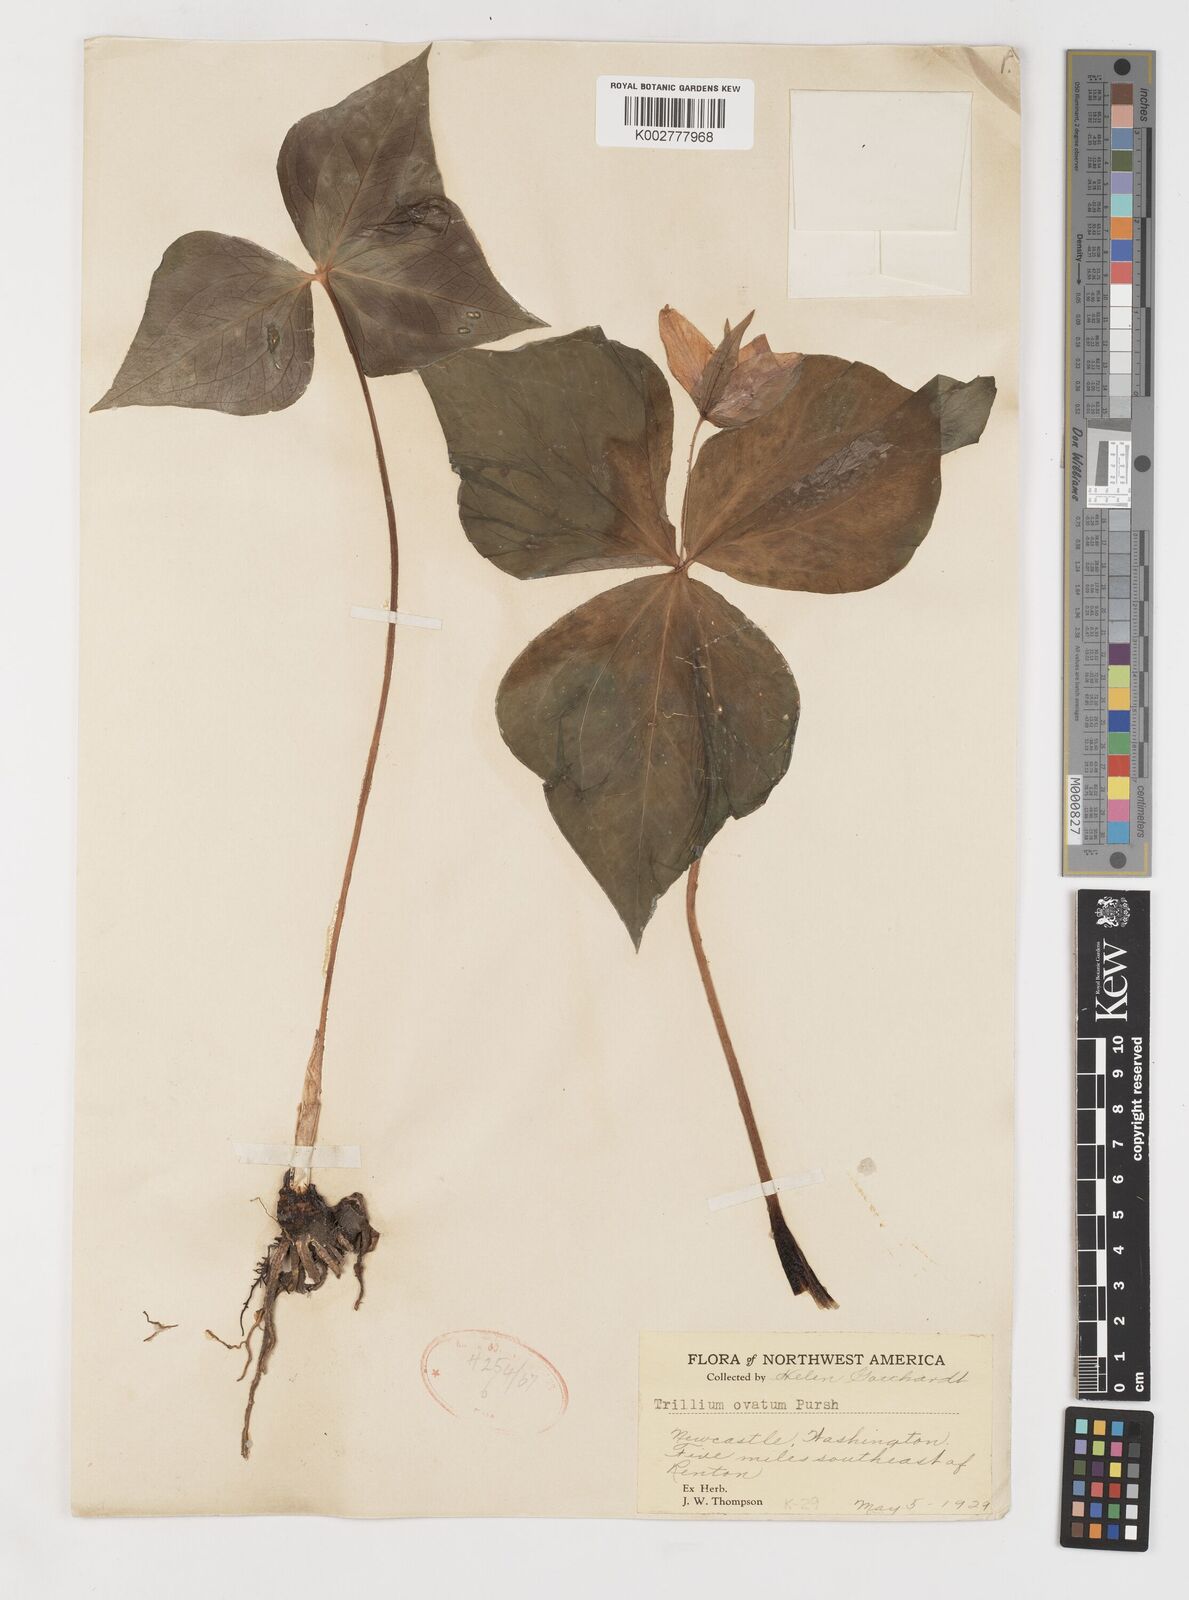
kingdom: Plantae
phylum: Tracheophyta
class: Liliopsida
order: Liliales
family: Melanthiaceae
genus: Trillium
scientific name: Trillium ovatum
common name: Pacific trillium
